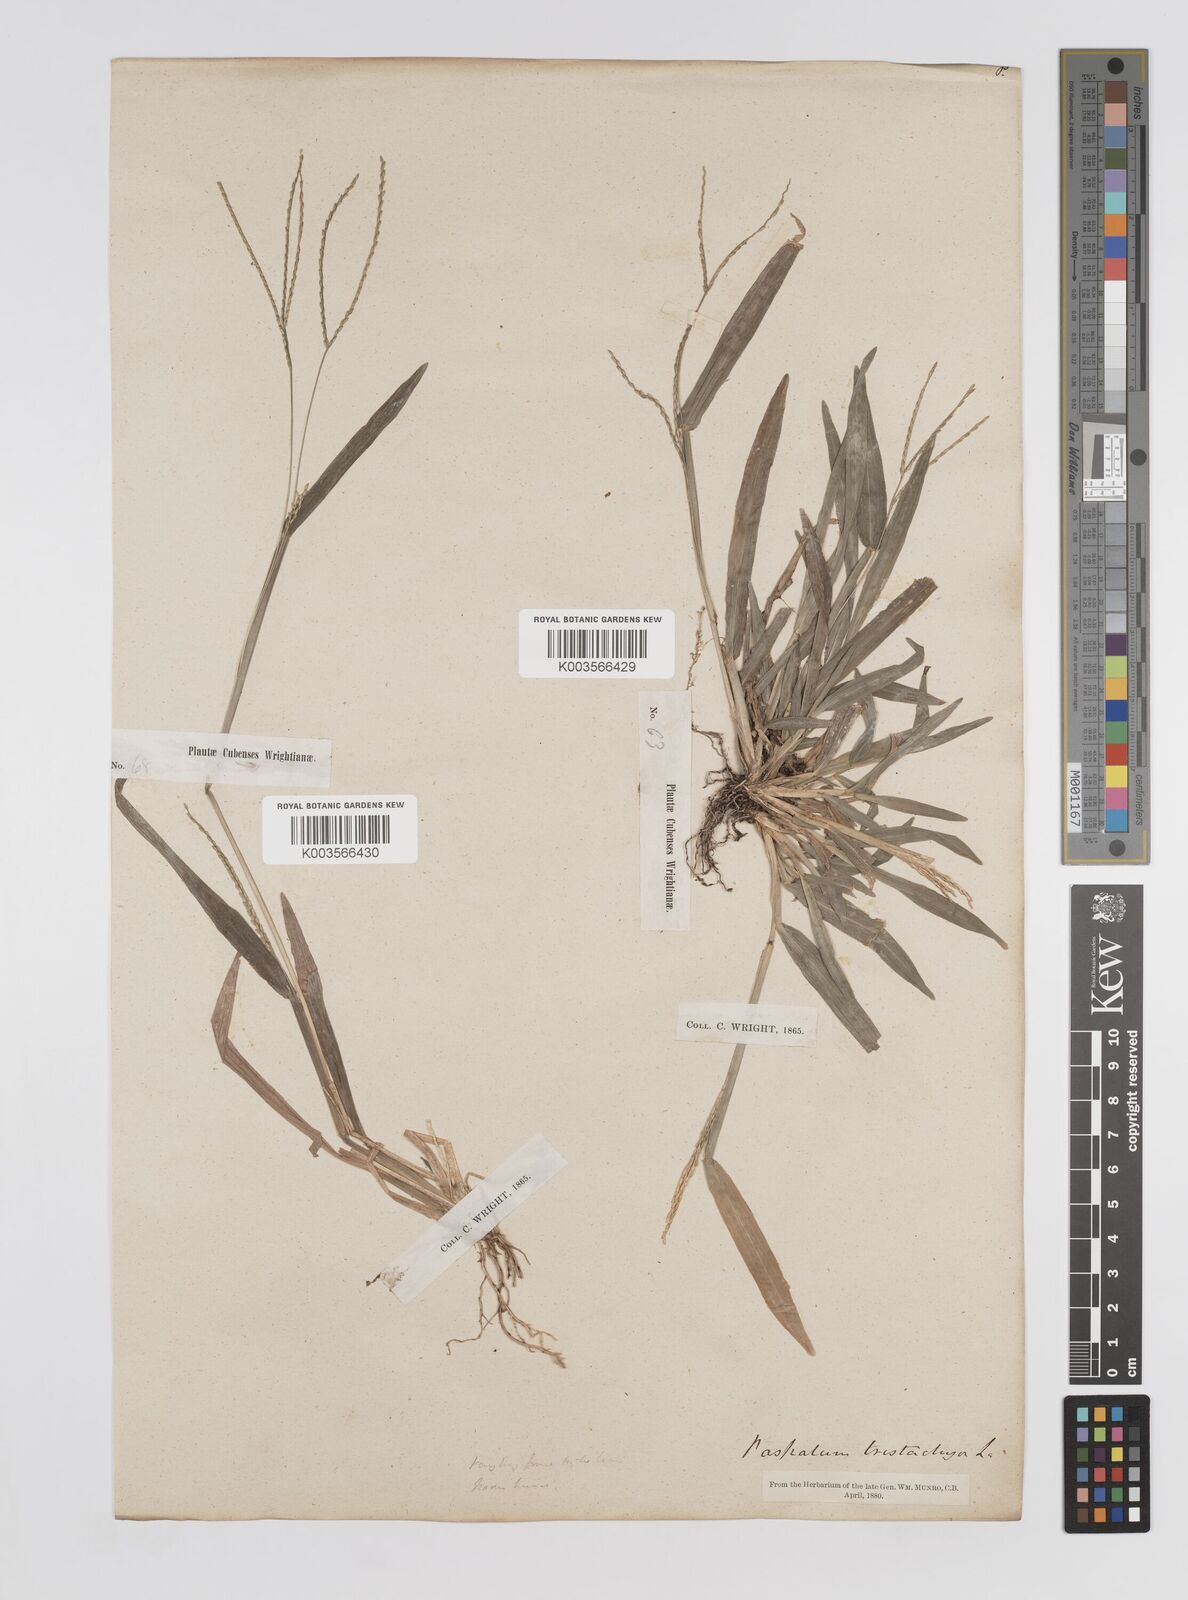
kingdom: Plantae
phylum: Tracheophyta
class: Liliopsida
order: Poales
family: Poaceae
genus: Axonopus
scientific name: Axonopus compressus
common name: American carpet grass
